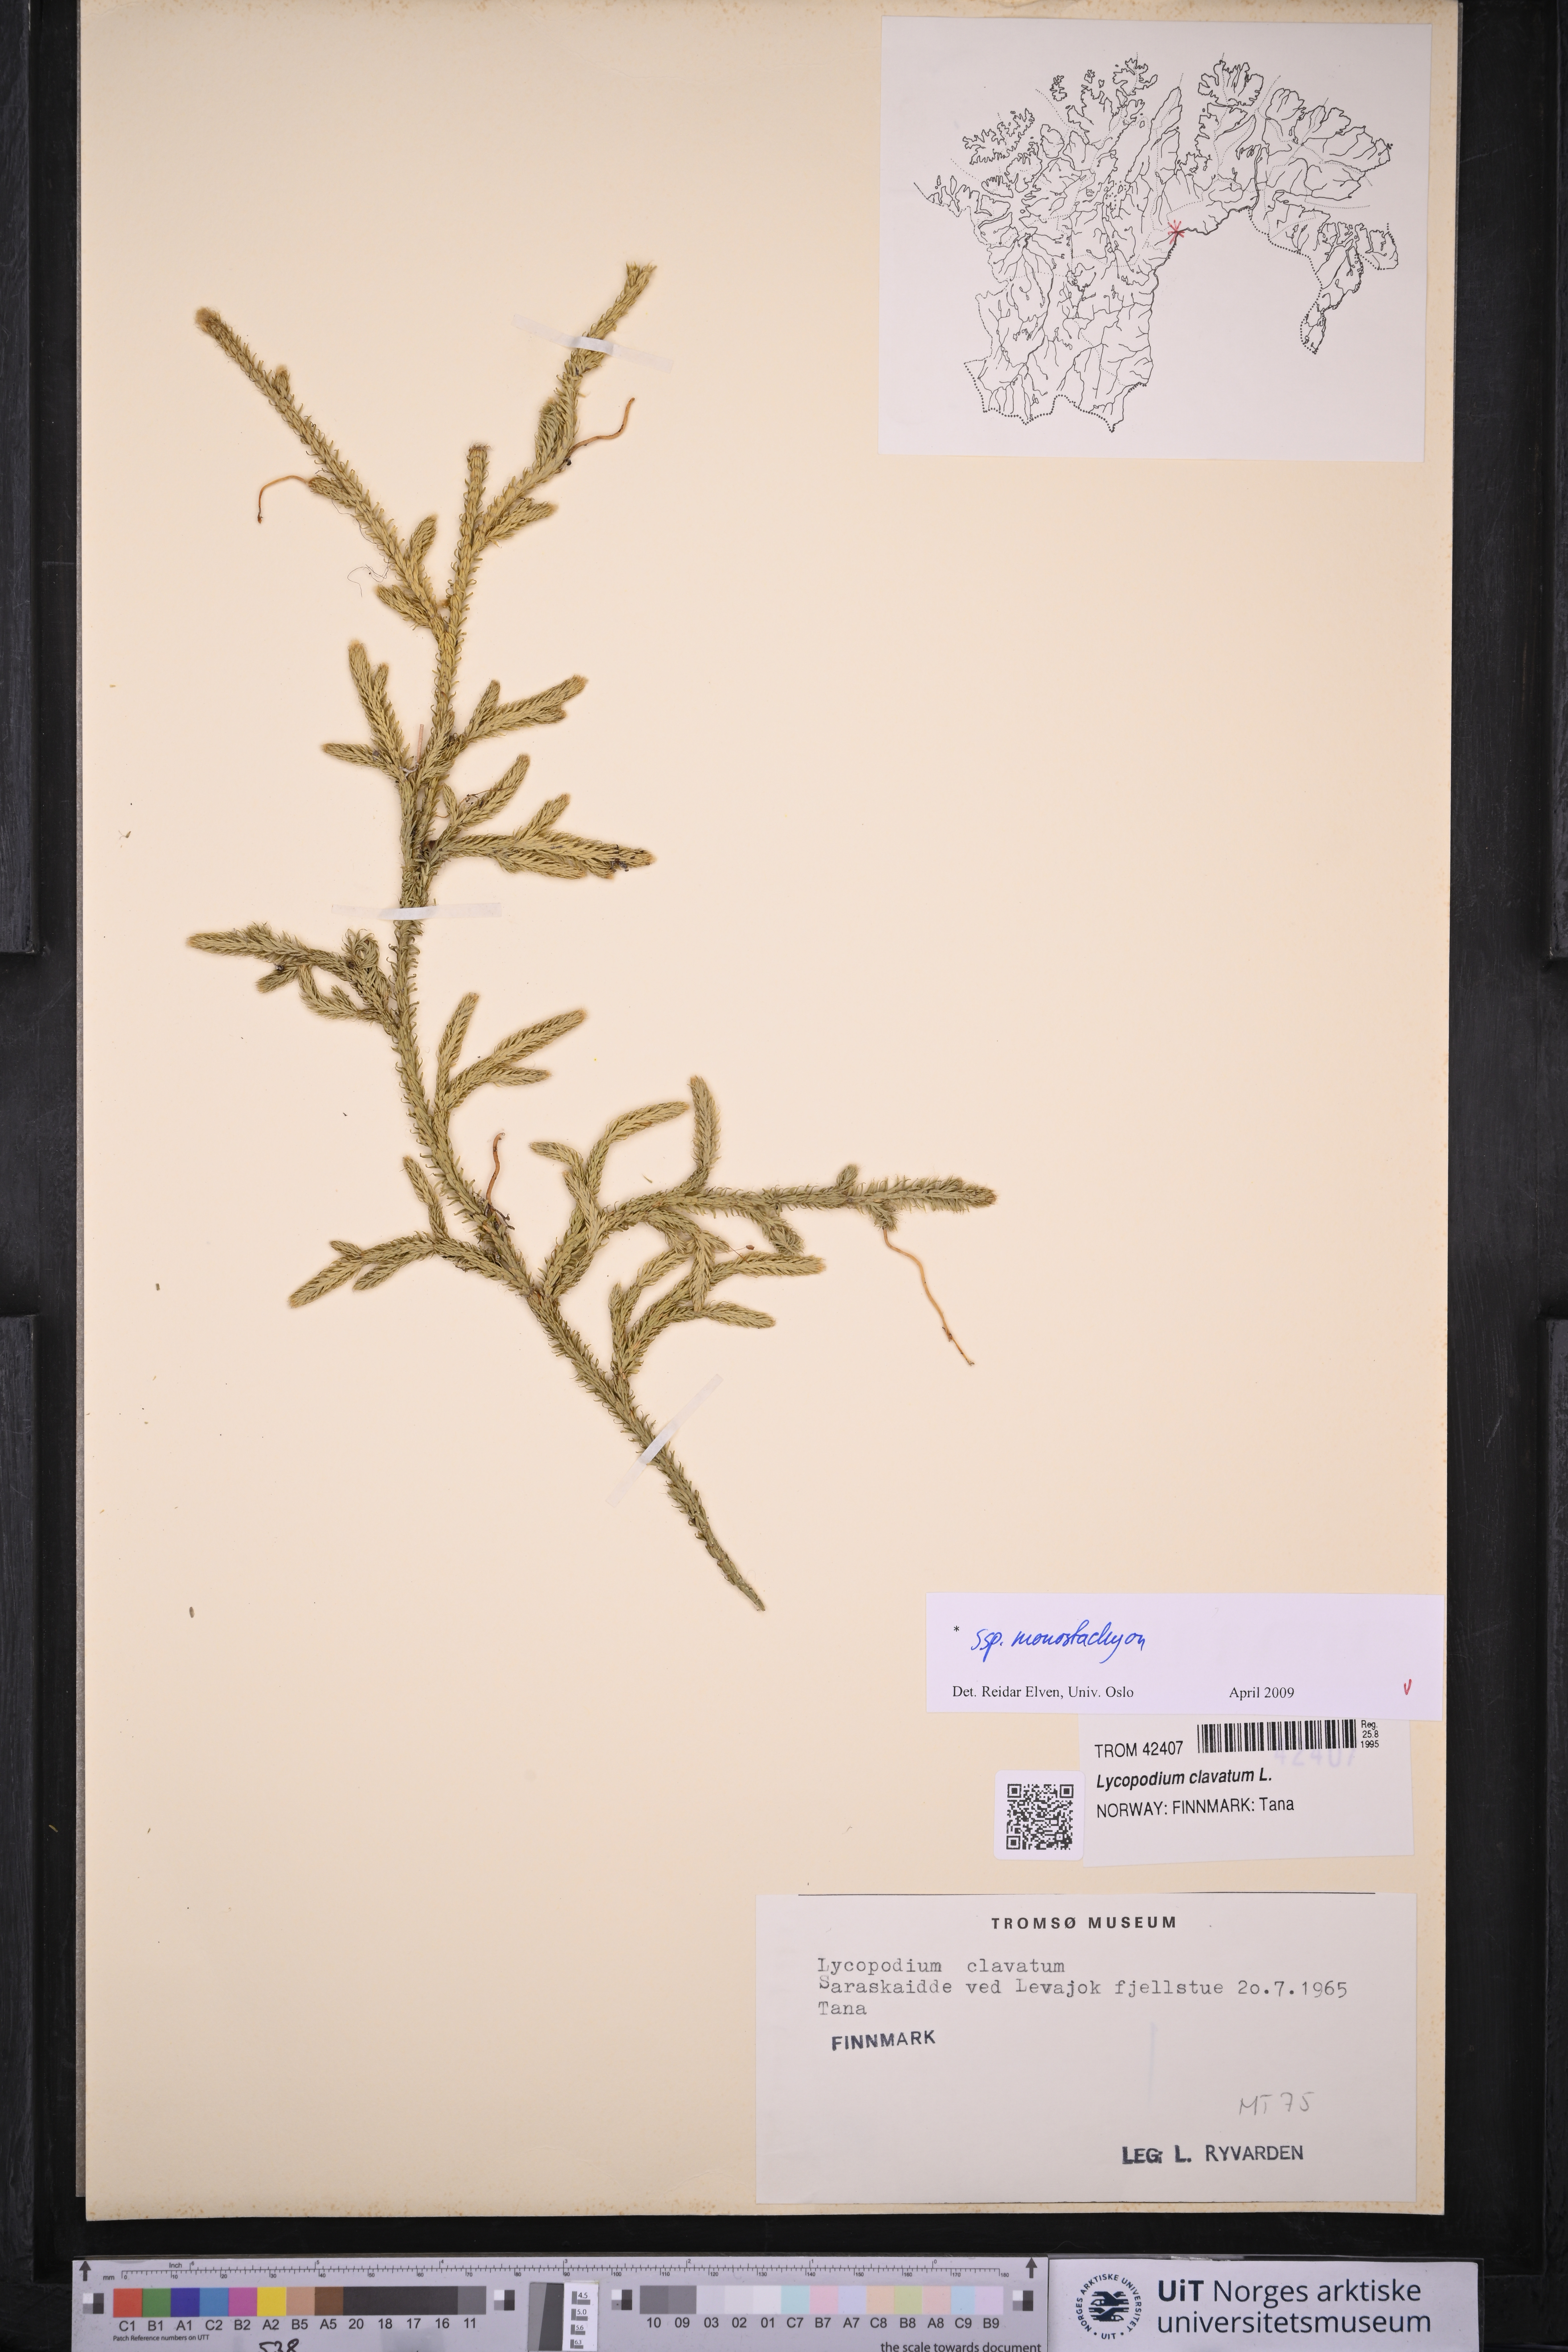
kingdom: Plantae
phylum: Tracheophyta
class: Lycopodiopsida
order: Lycopodiales
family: Lycopodiaceae
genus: Lycopodium
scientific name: Lycopodium lagopus
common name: One-cone clubmoss
